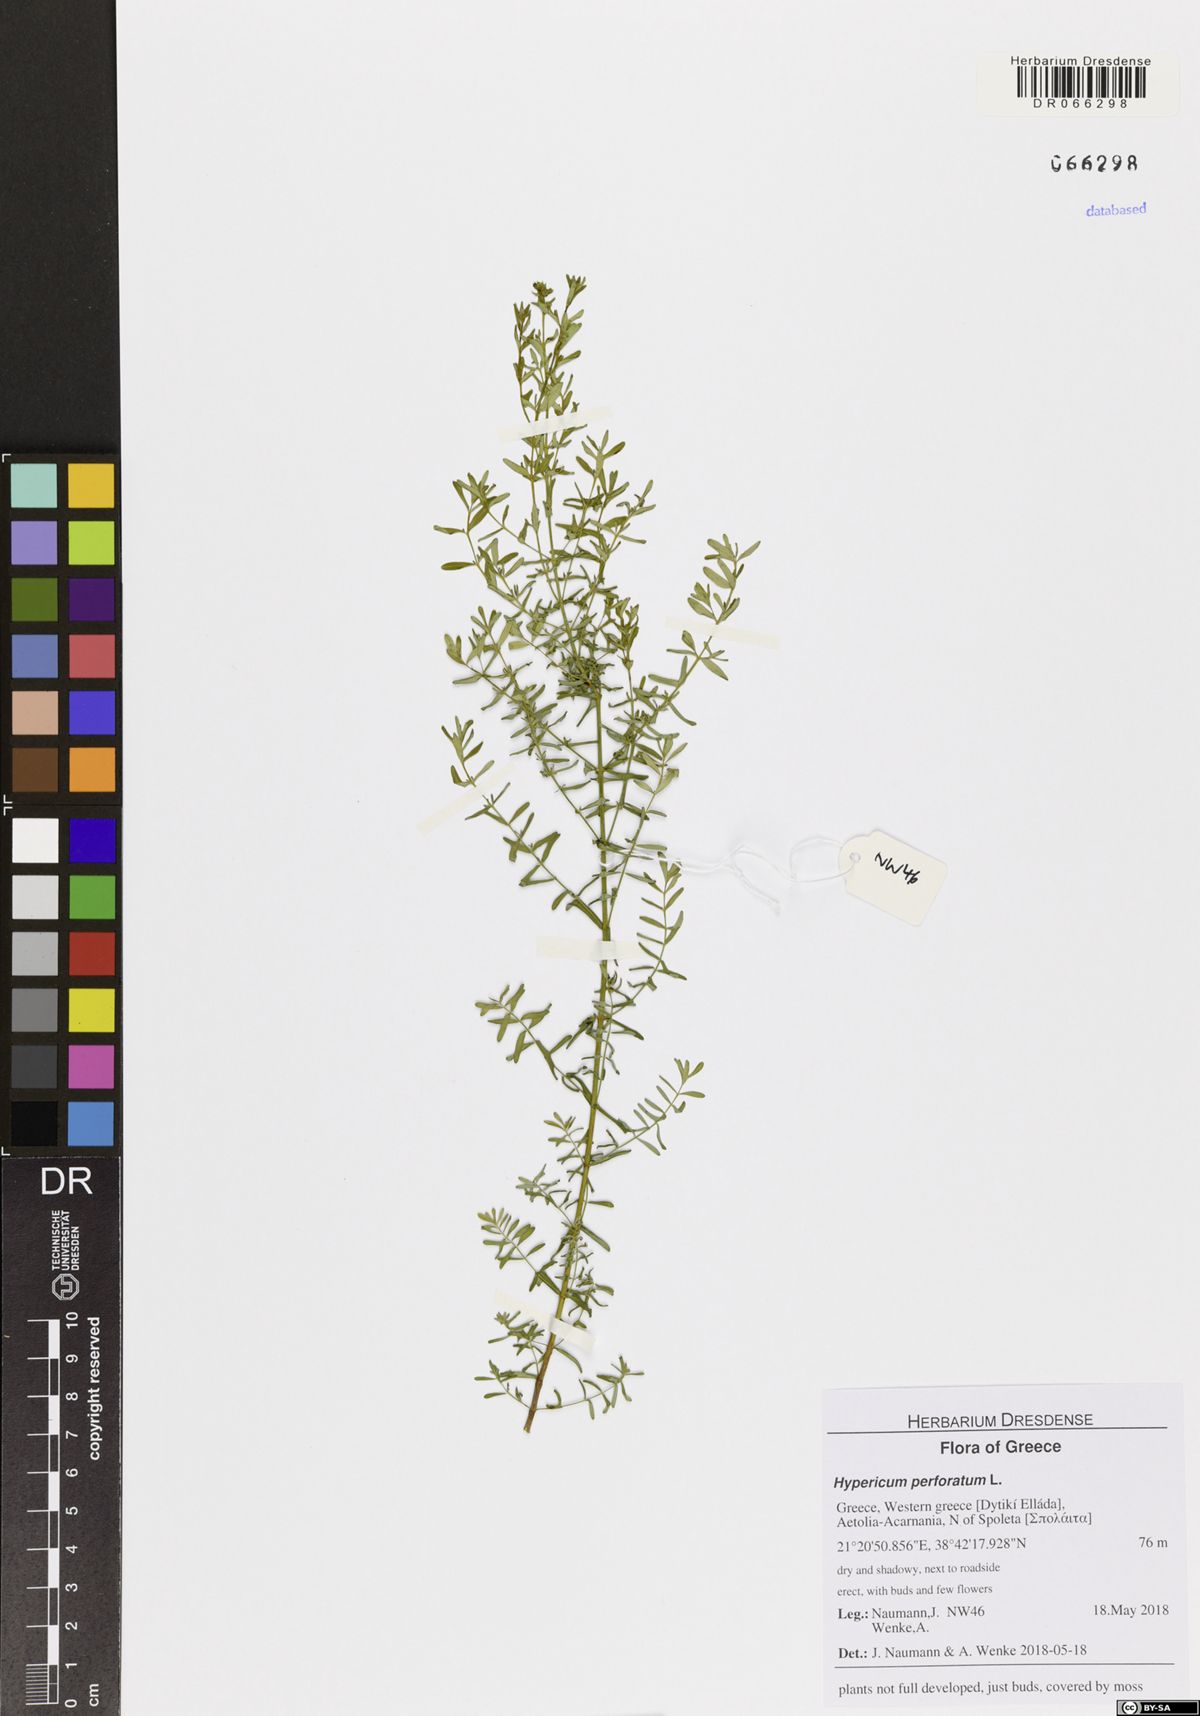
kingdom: Plantae
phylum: Tracheophyta
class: Magnoliopsida
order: Malpighiales
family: Hypericaceae
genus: Hypericum
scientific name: Hypericum perforatum
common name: Common st. johnswort
